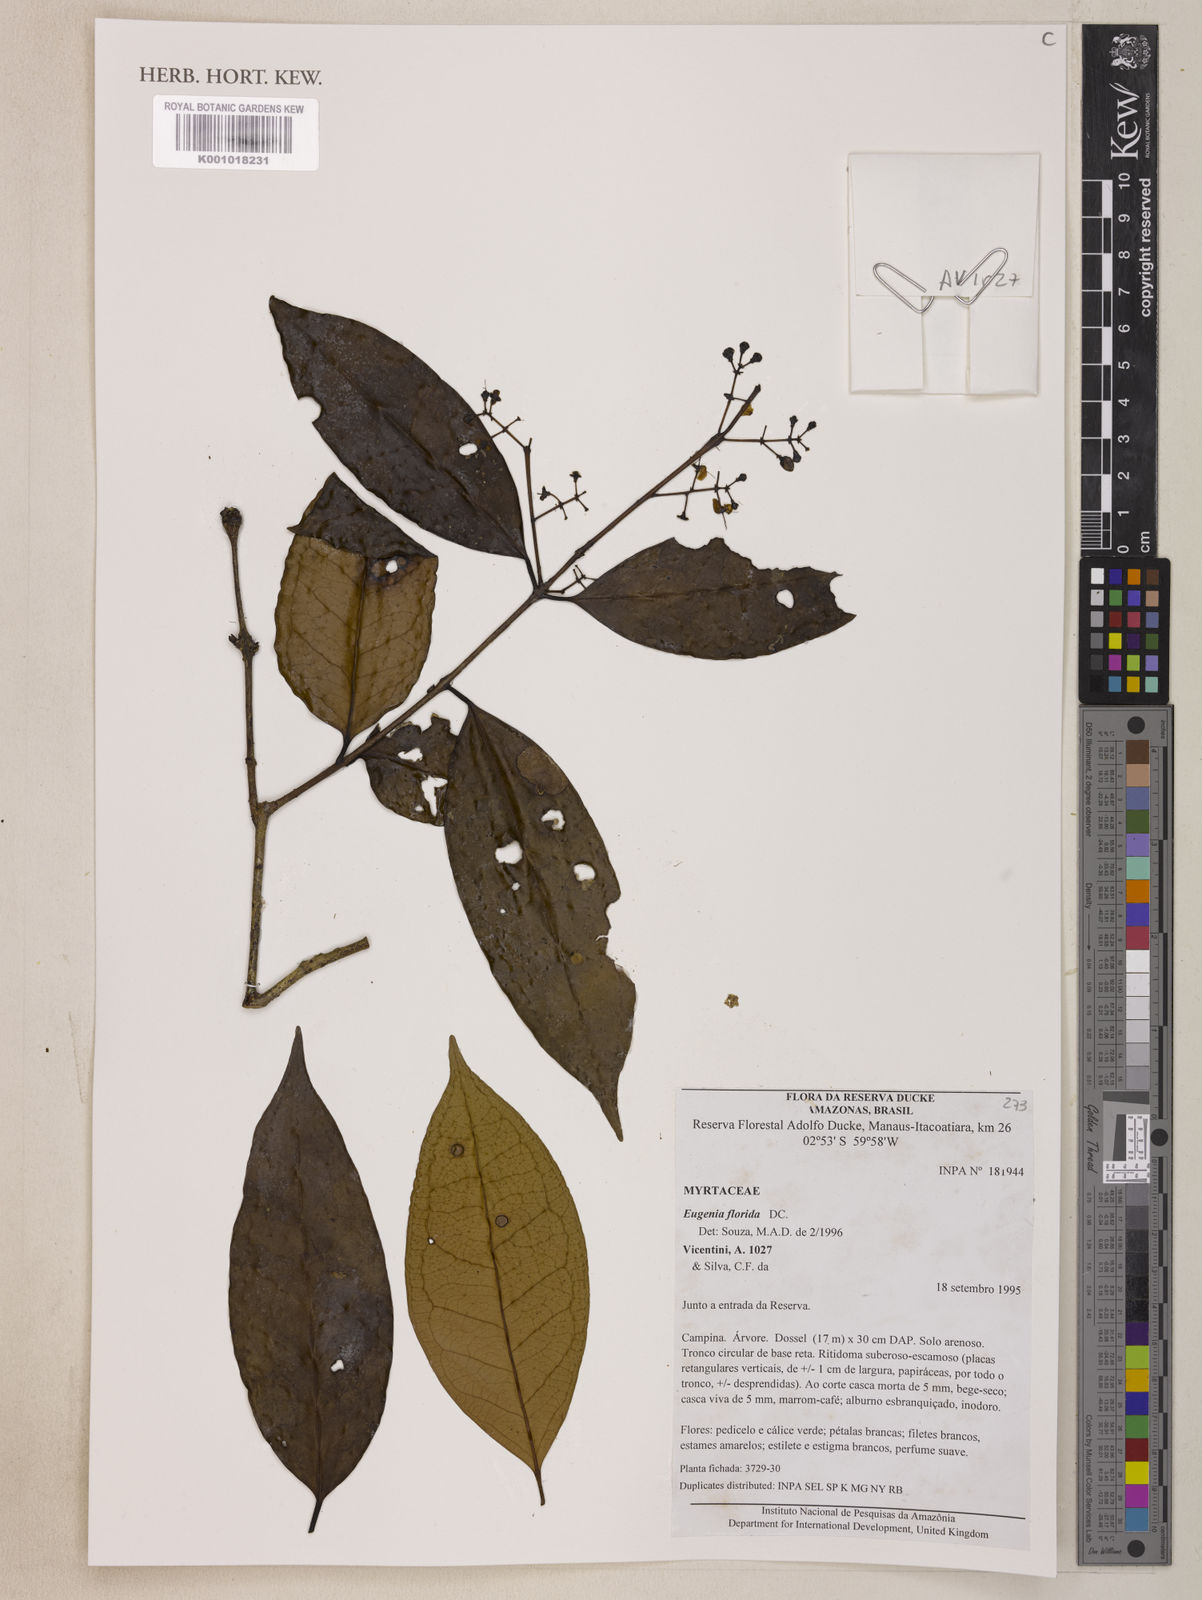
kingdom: Plantae
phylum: Tracheophyta
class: Magnoliopsida
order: Myrtales
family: Myrtaceae
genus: Eugenia
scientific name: Eugenia florida
